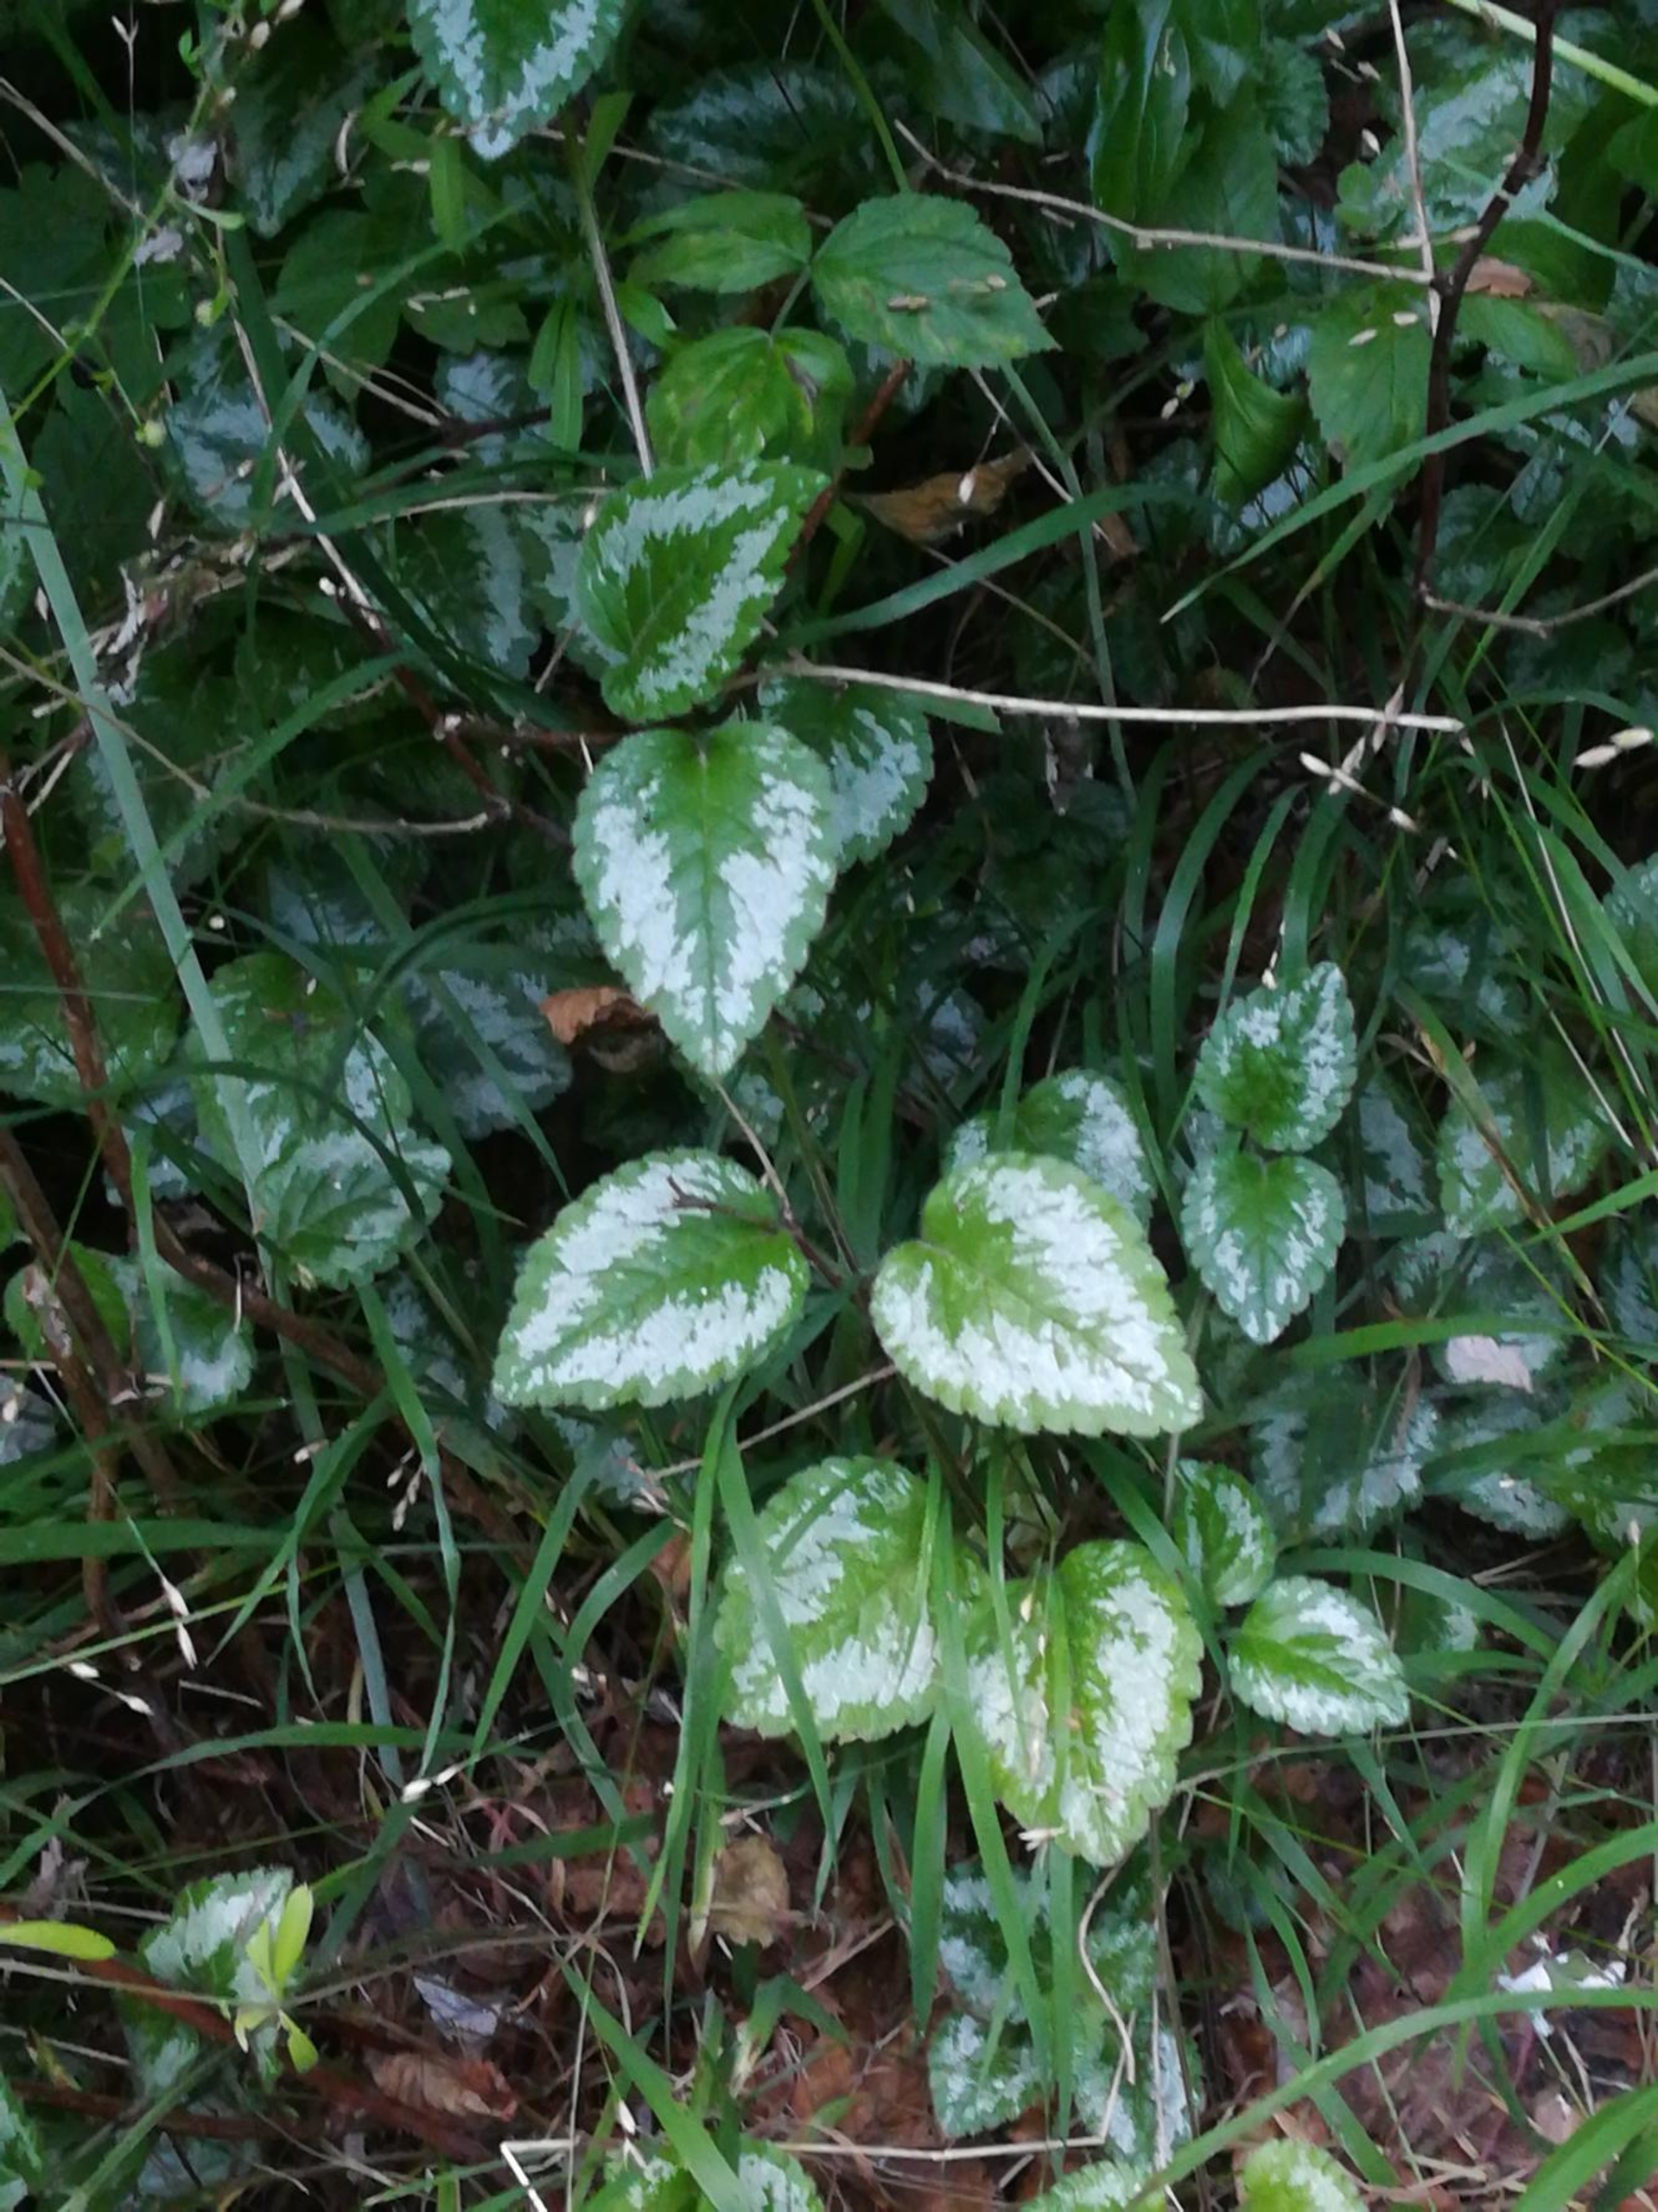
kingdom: Plantae
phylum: Tracheophyta
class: Magnoliopsida
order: Lamiales
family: Lamiaceae
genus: Lamium
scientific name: Lamium galeobdolon
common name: Have-guldnælde
